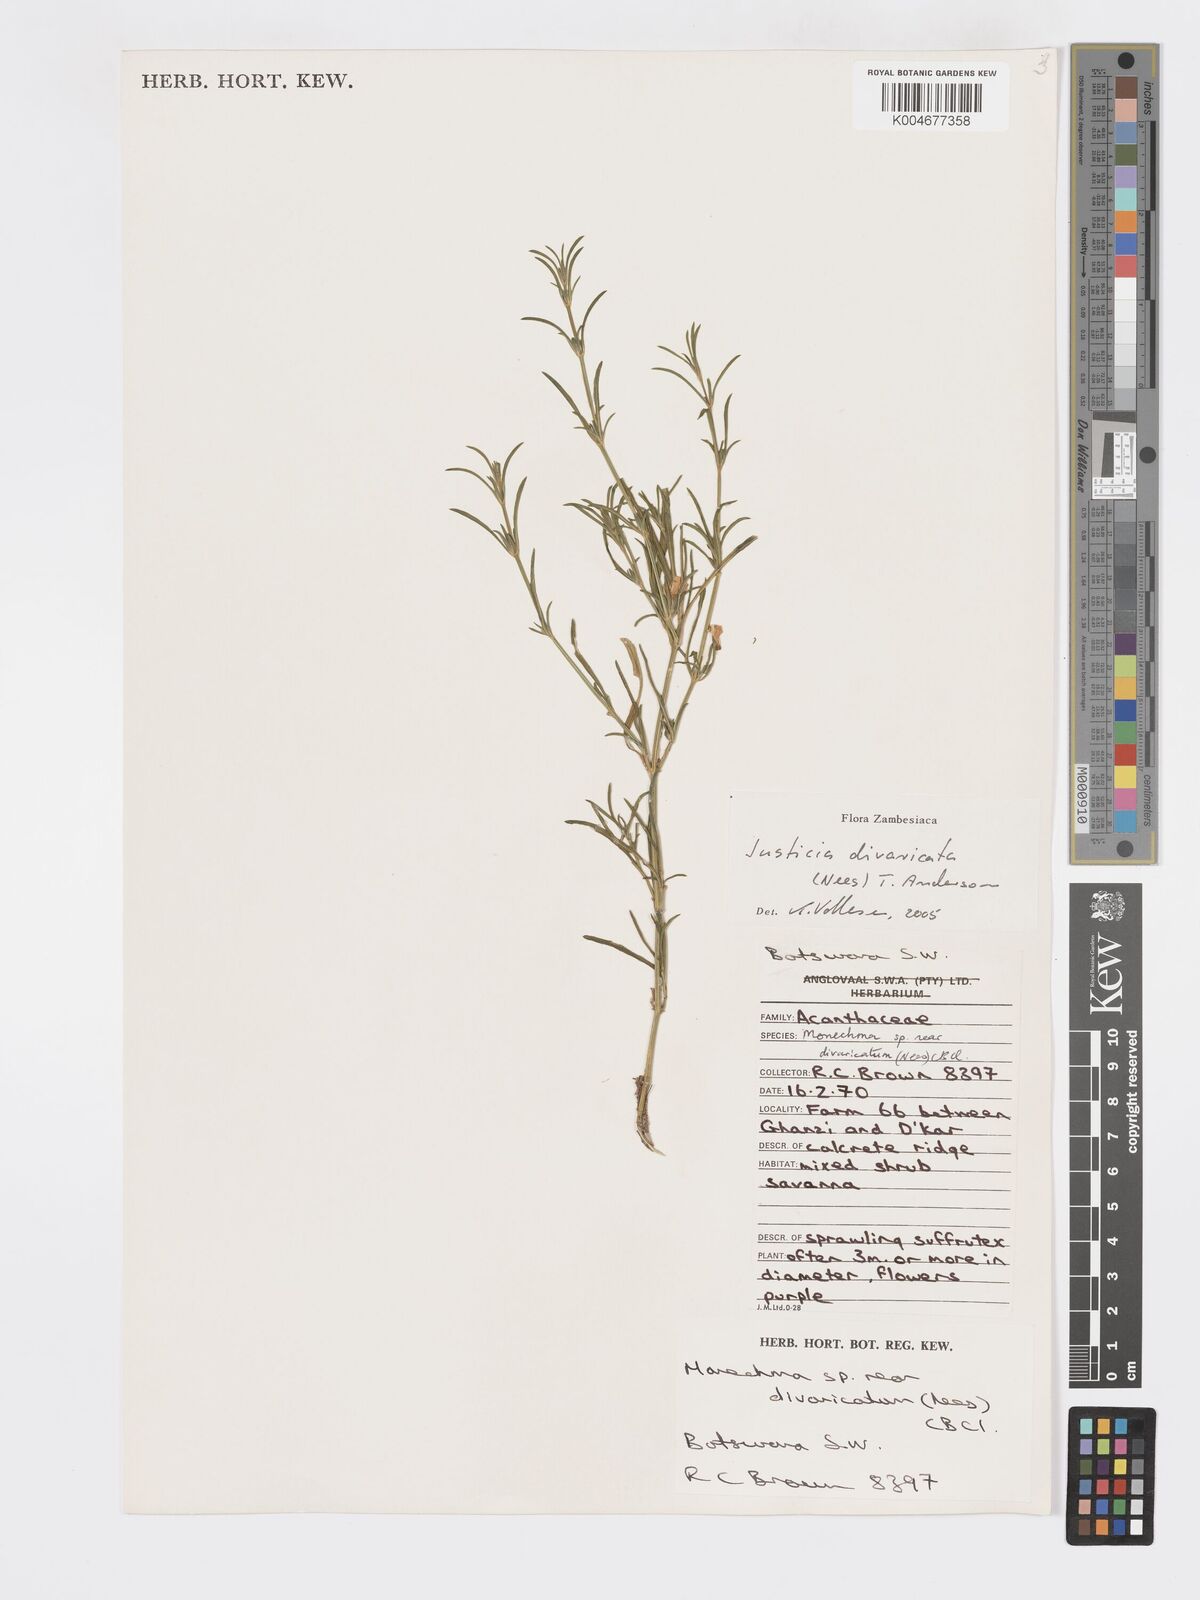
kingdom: Plantae
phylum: Tracheophyta
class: Magnoliopsida
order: Lamiales
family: Acanthaceae
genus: Pogonospermum
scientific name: Pogonospermum
